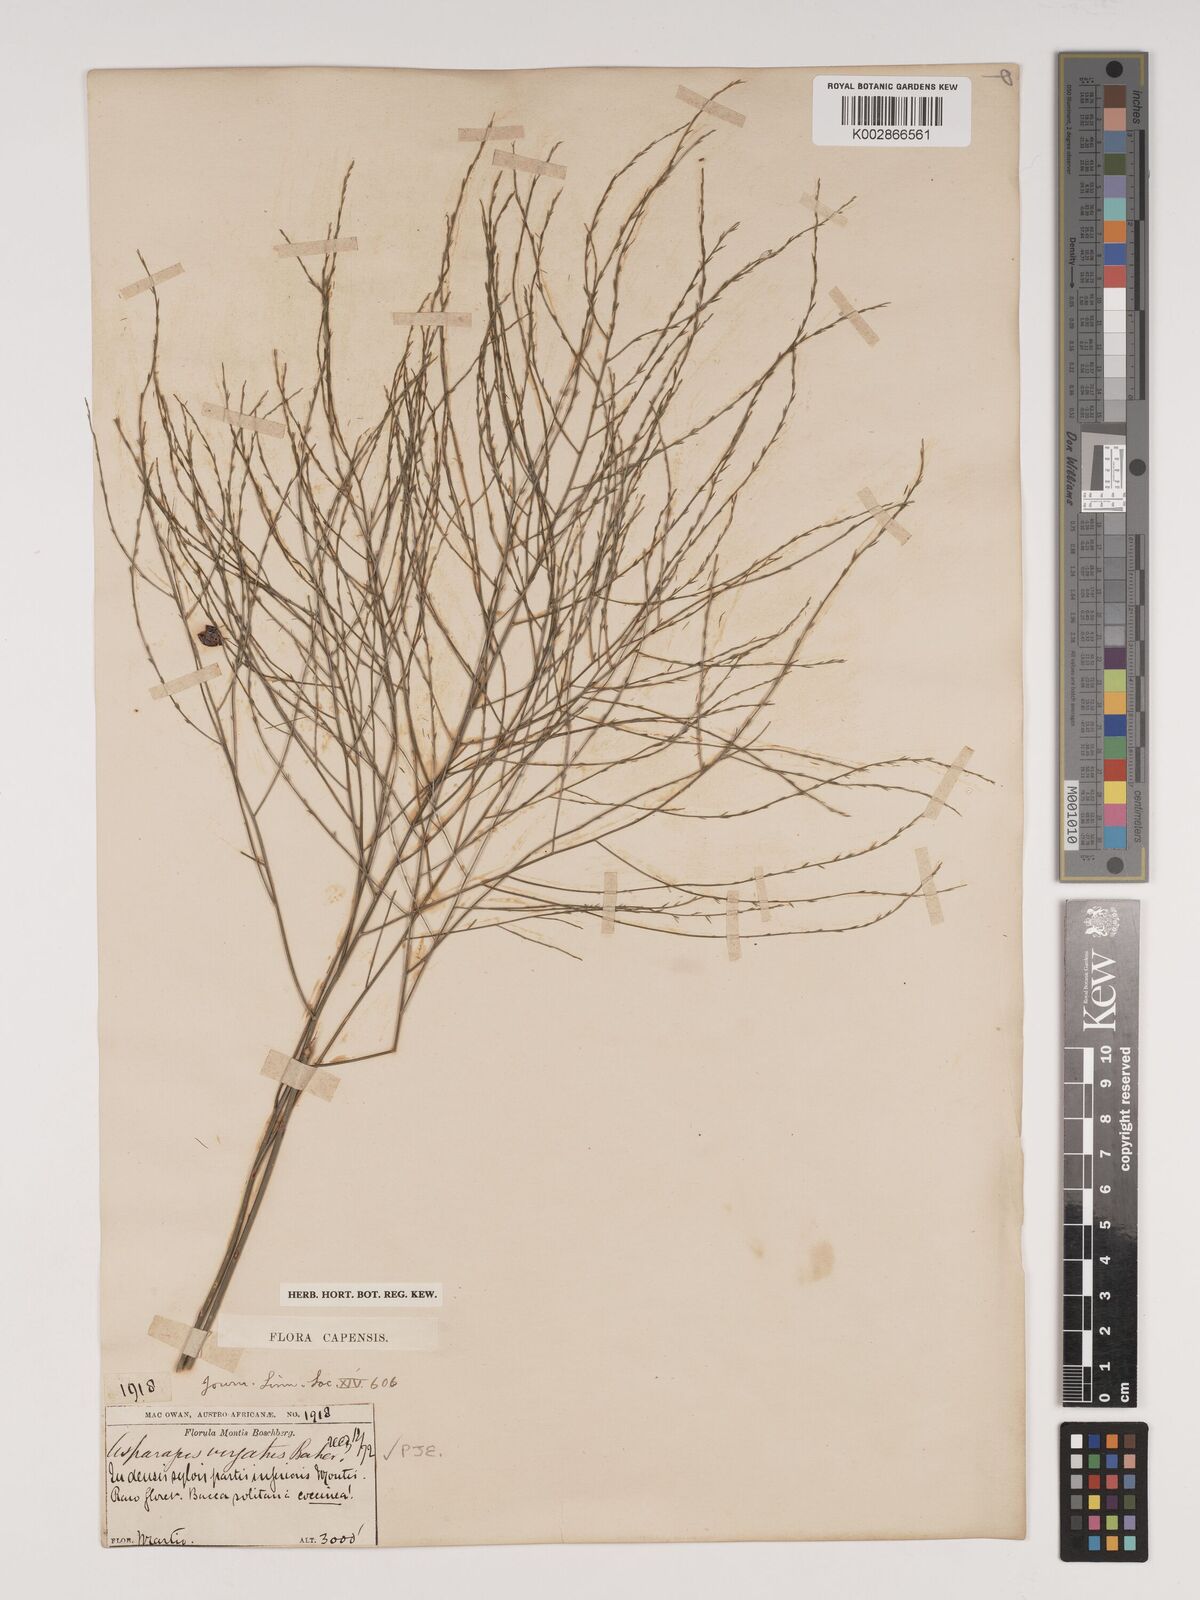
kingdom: Plantae
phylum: Tracheophyta
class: Liliopsida
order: Asparagales
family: Asparagaceae
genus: Asparagus
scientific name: Asparagus virgatus
